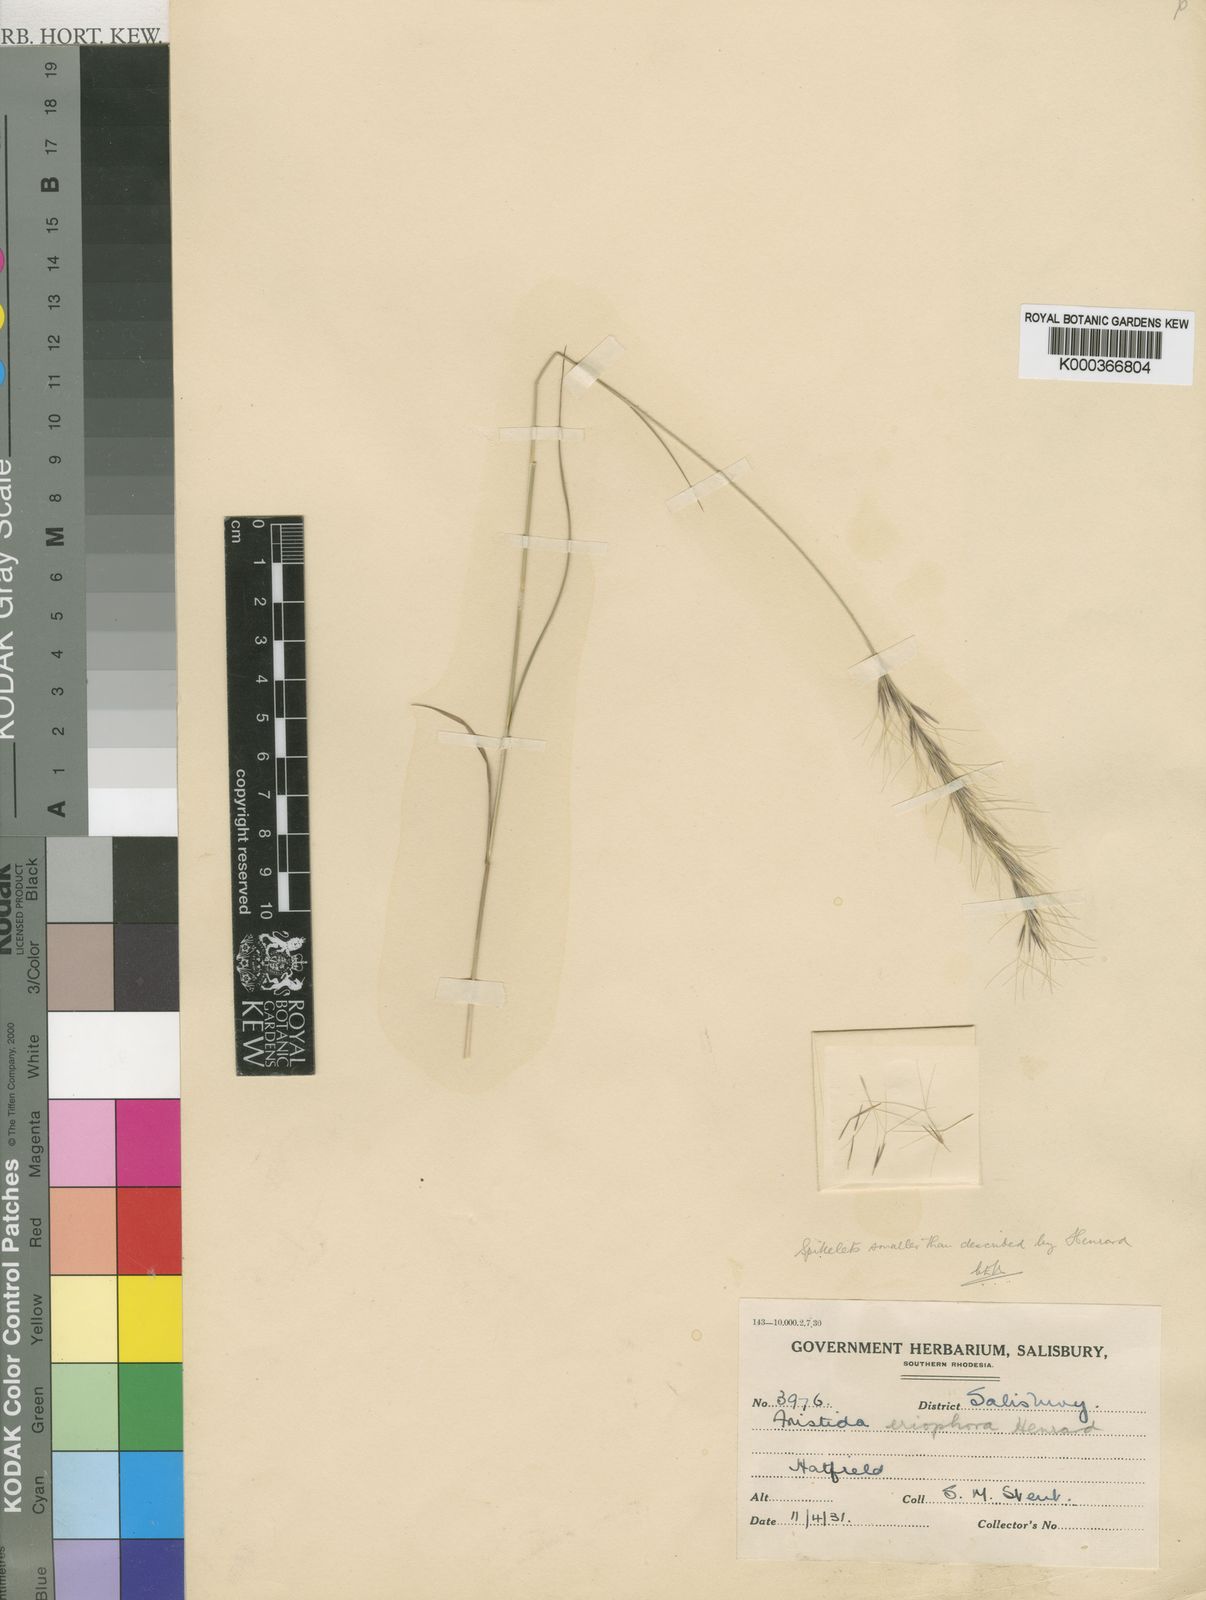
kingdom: Plantae
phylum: Tracheophyta
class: Liliopsida
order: Poales
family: Poaceae
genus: Aristida
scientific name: Aristida leucophaea
